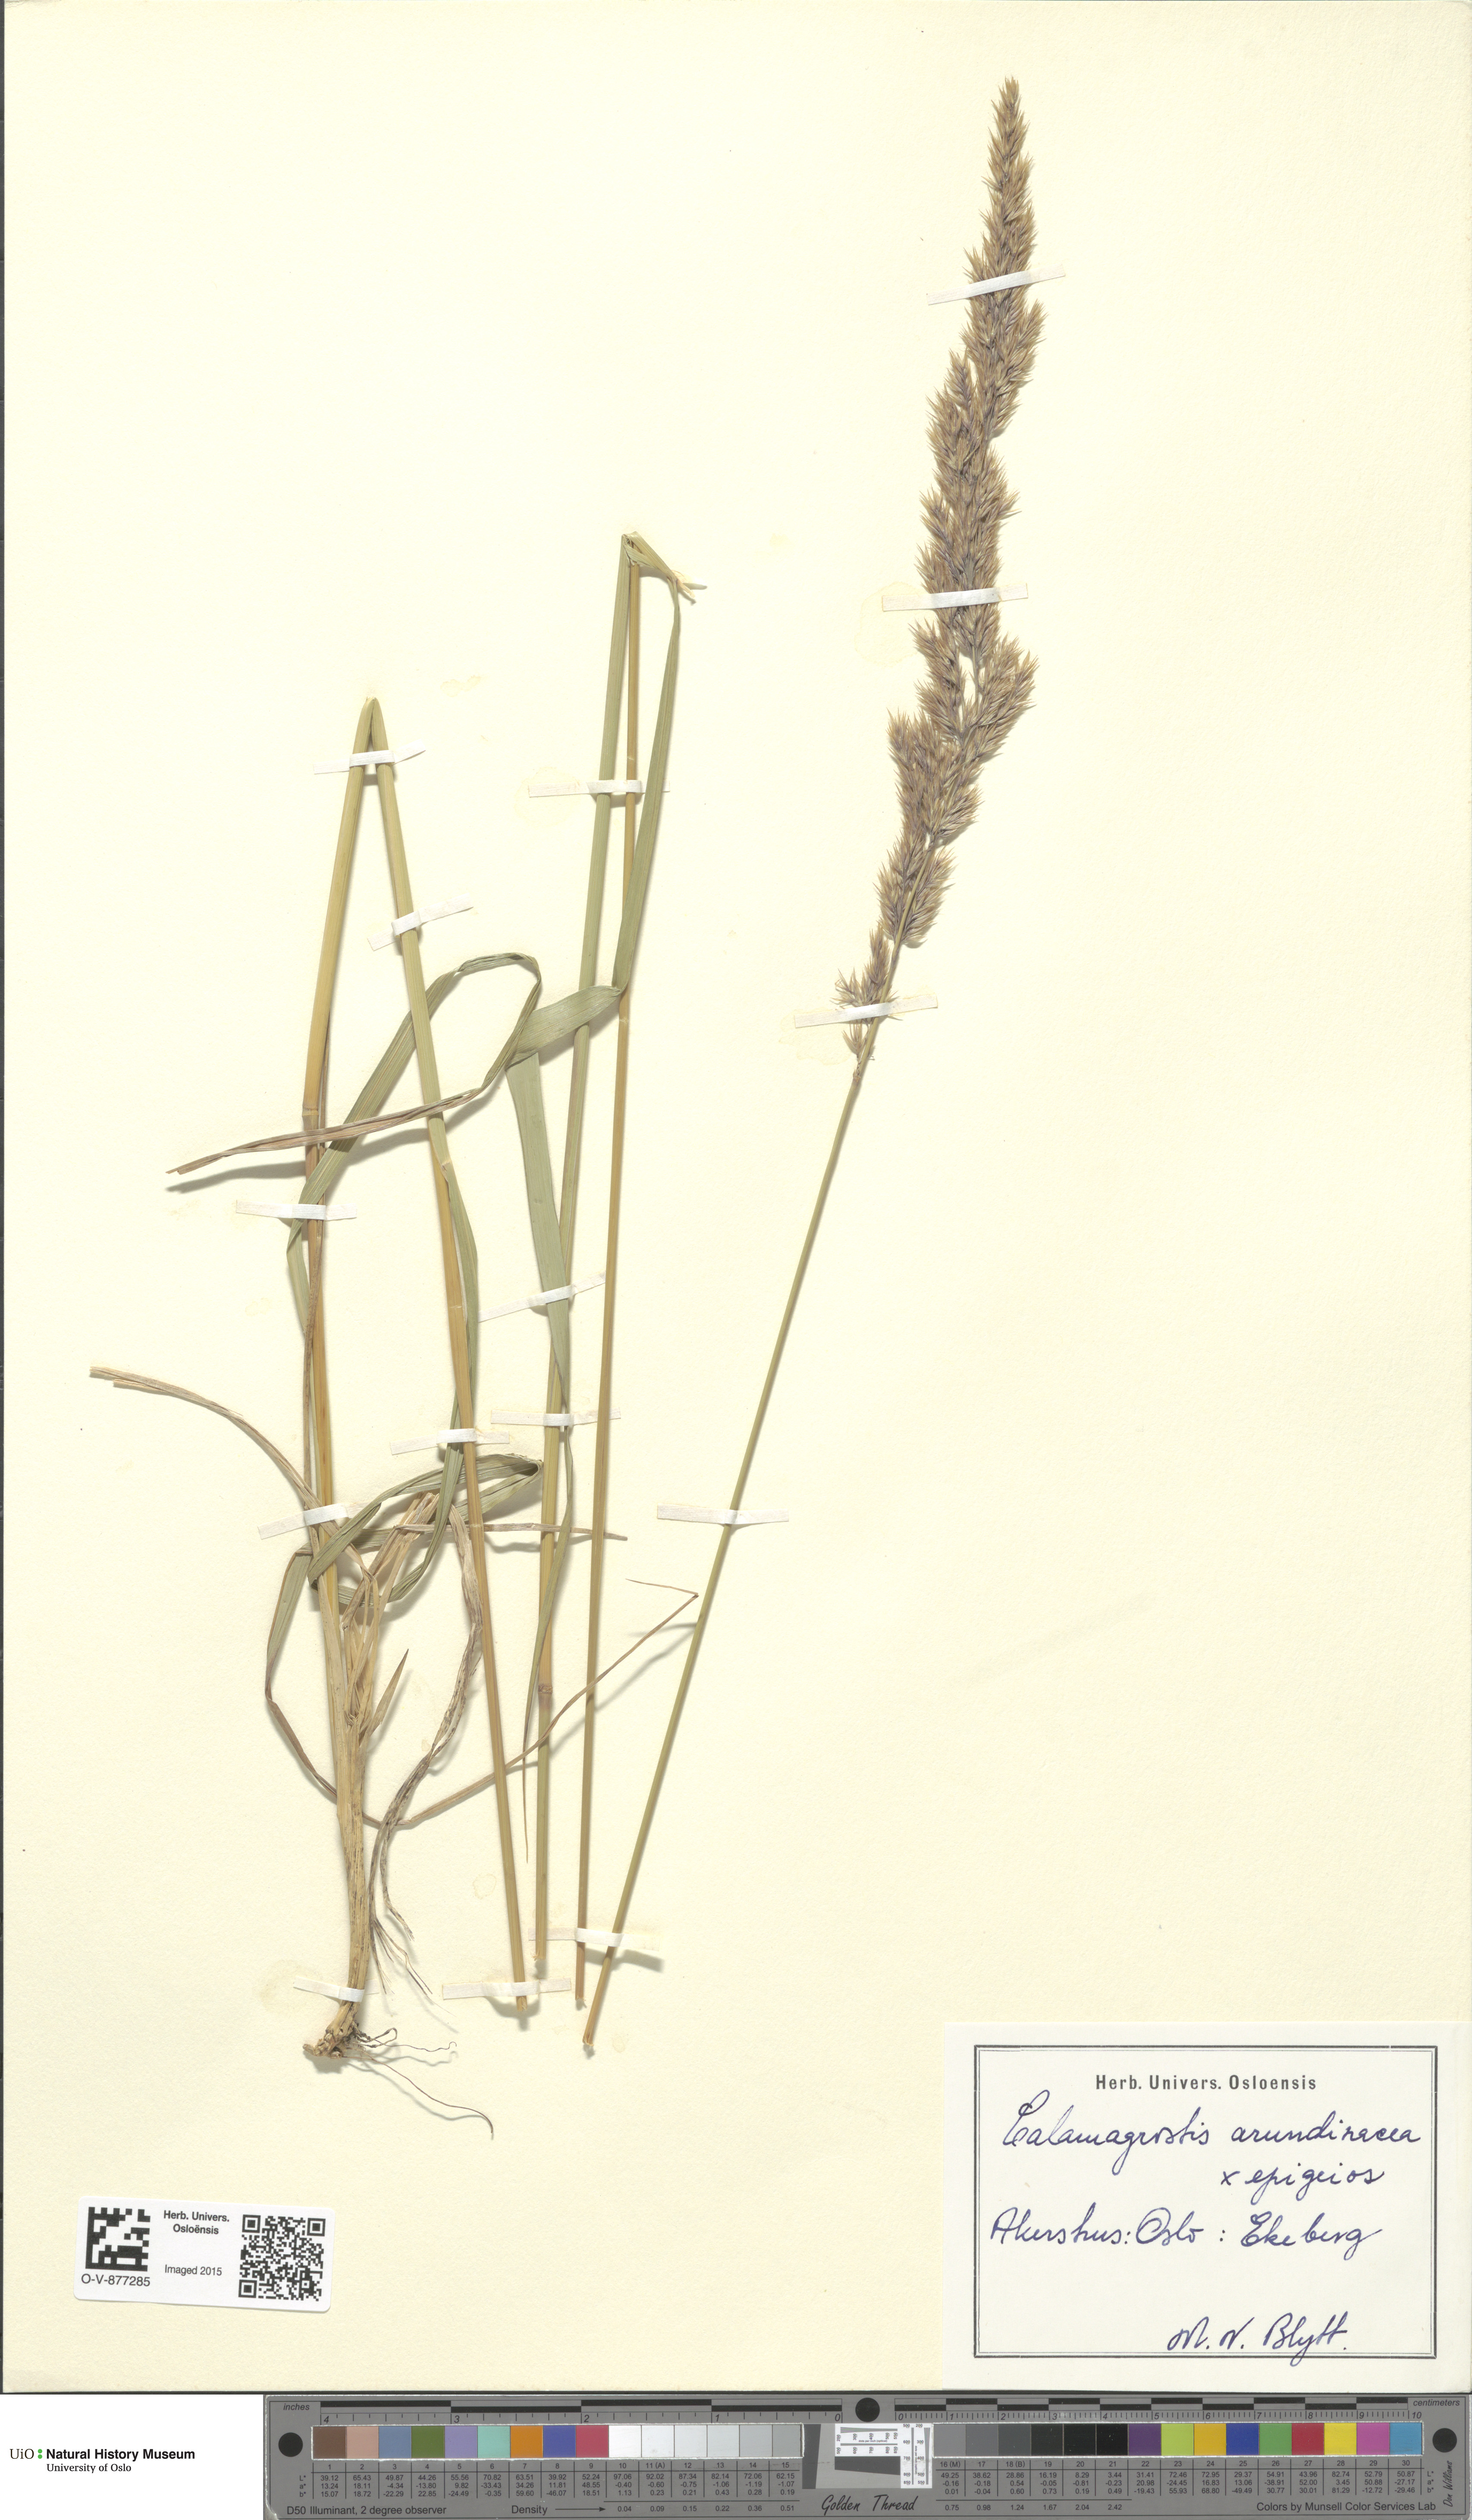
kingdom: Plantae
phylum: Tracheophyta
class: Liliopsida
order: Poales
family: Poaceae
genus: Calamagrostis
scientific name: Calamagrostis
